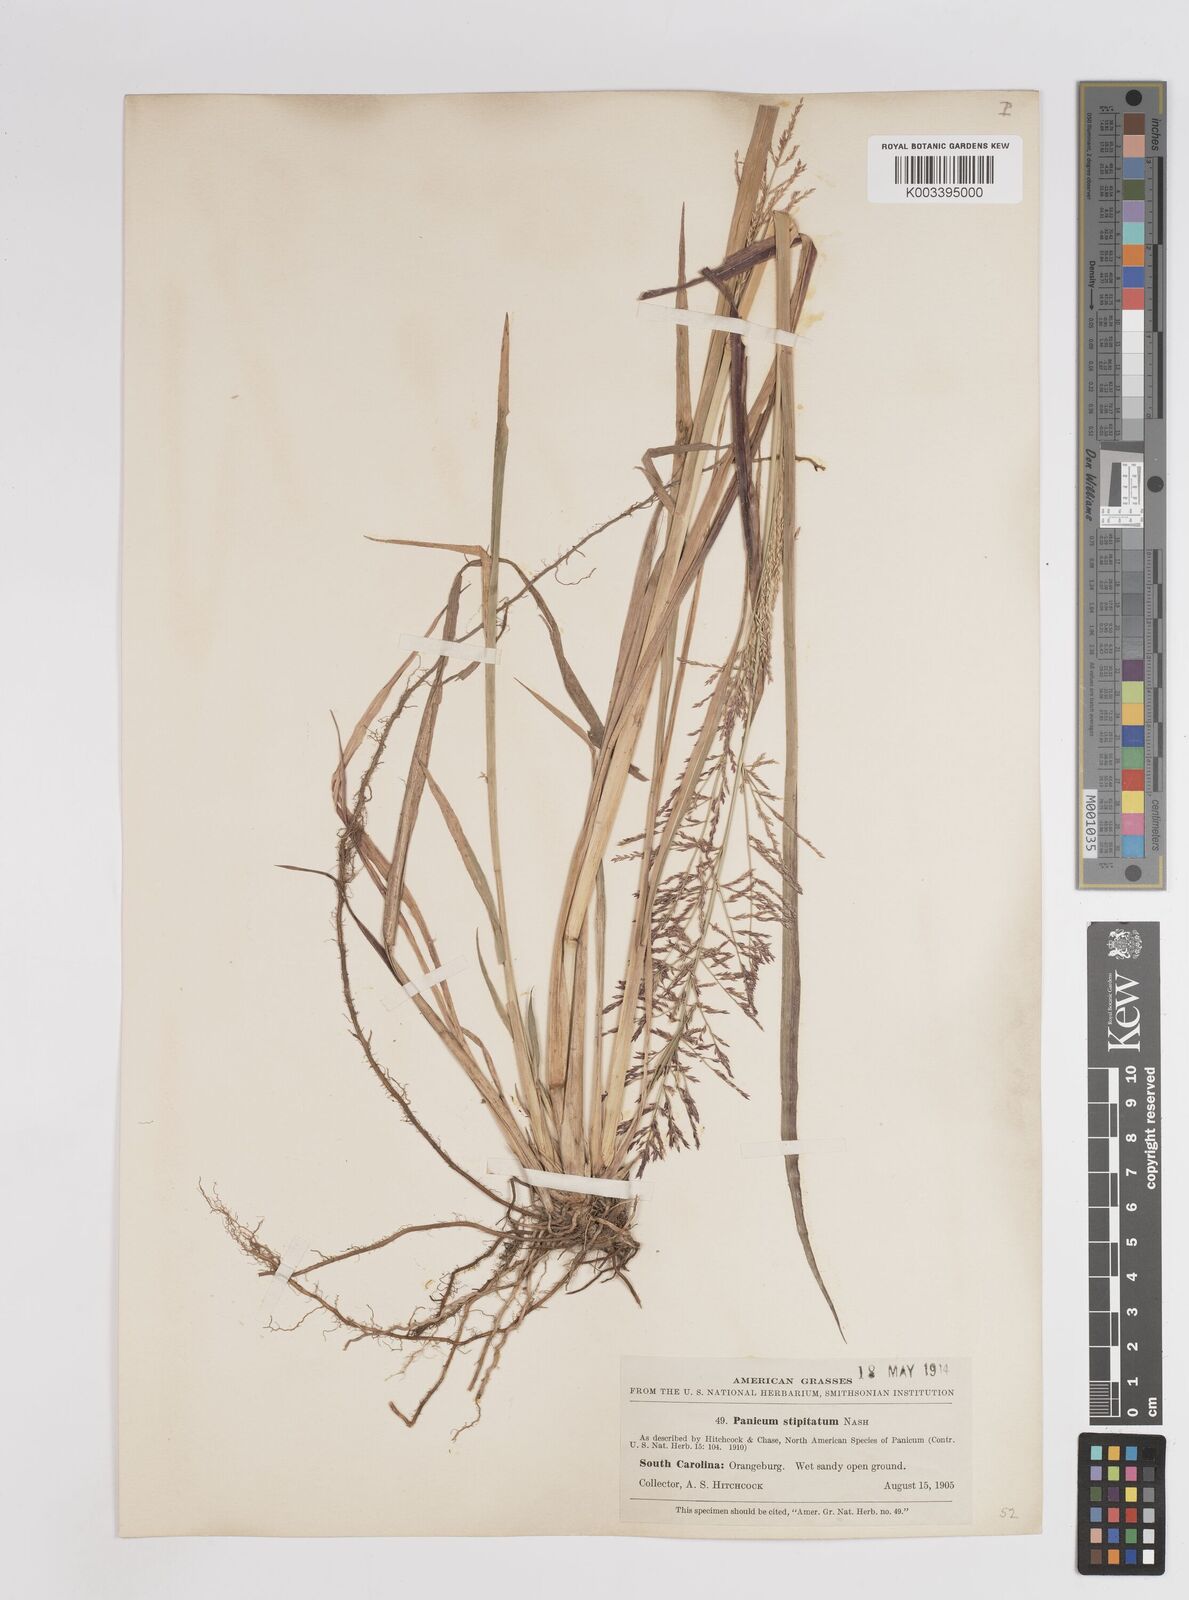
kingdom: Plantae
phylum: Tracheophyta
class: Liliopsida
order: Poales
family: Poaceae
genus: Coleataenia
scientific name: Coleataenia pulchra
